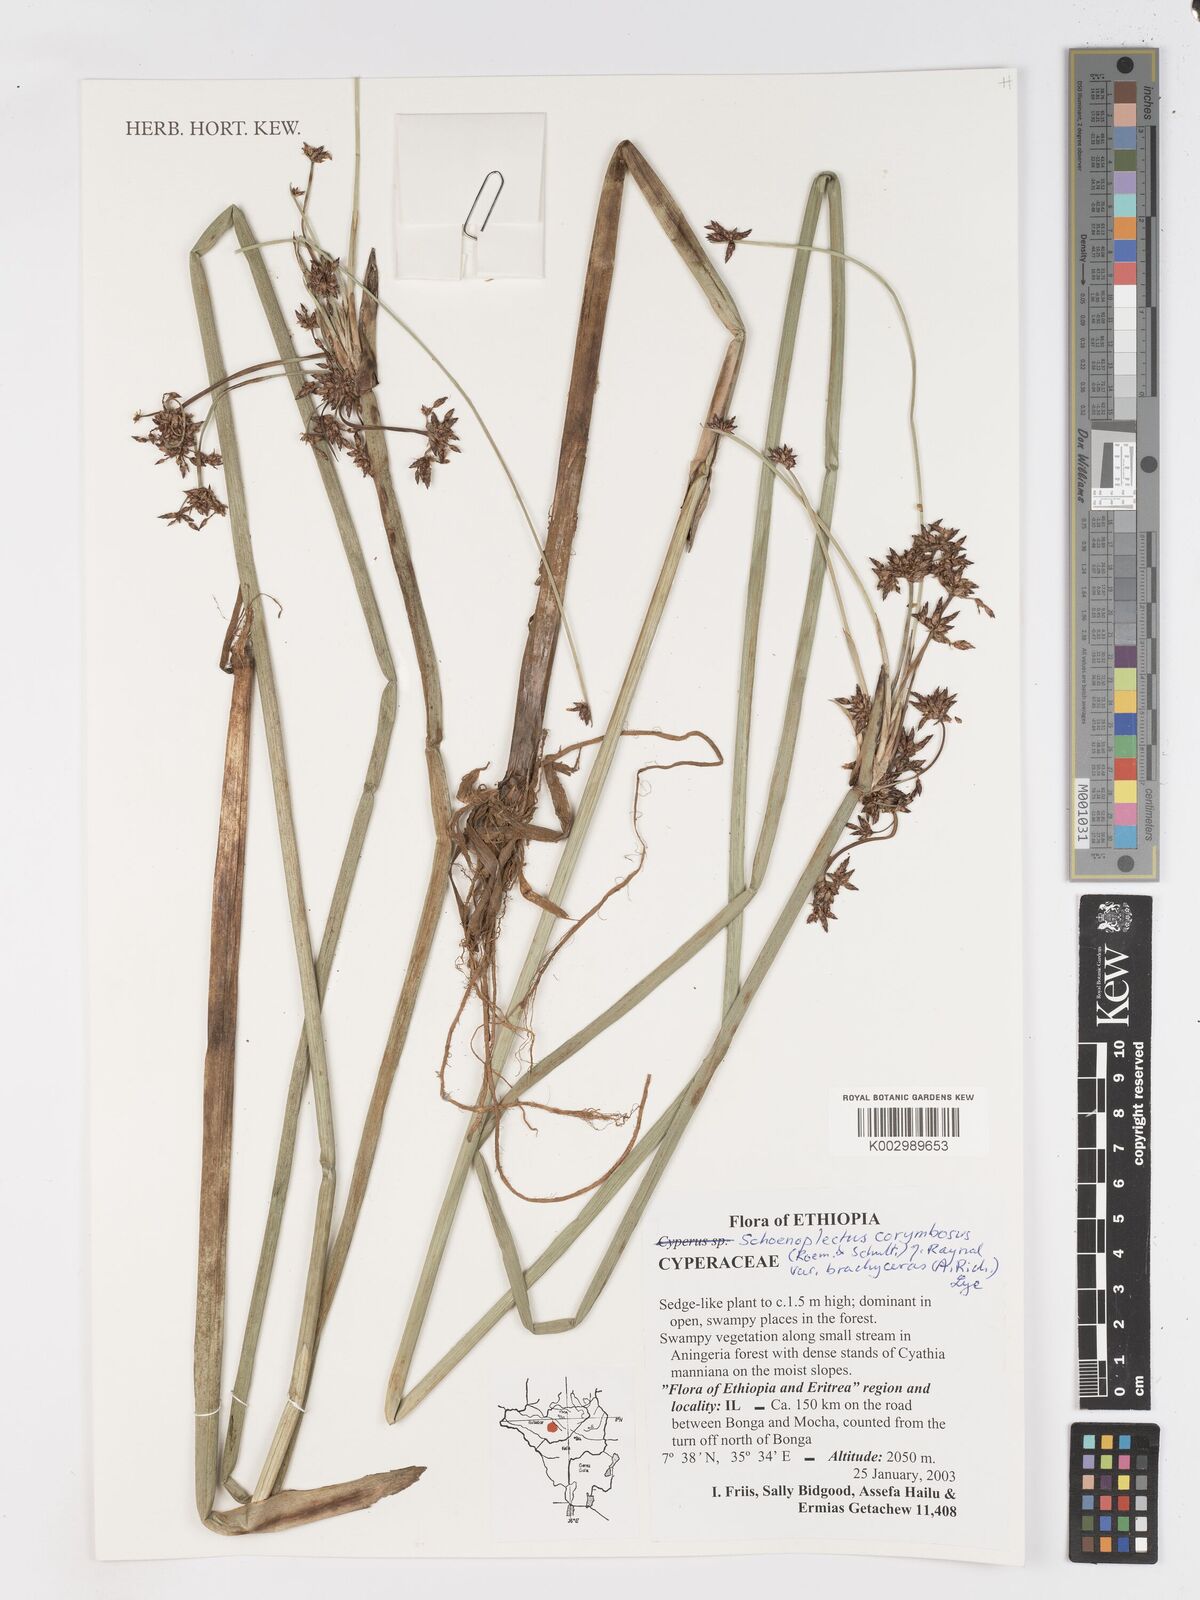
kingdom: Plantae
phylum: Tracheophyta
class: Liliopsida
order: Poales
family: Cyperaceae
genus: Schoenoplectiella
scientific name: Schoenoplectiella brachyceras
